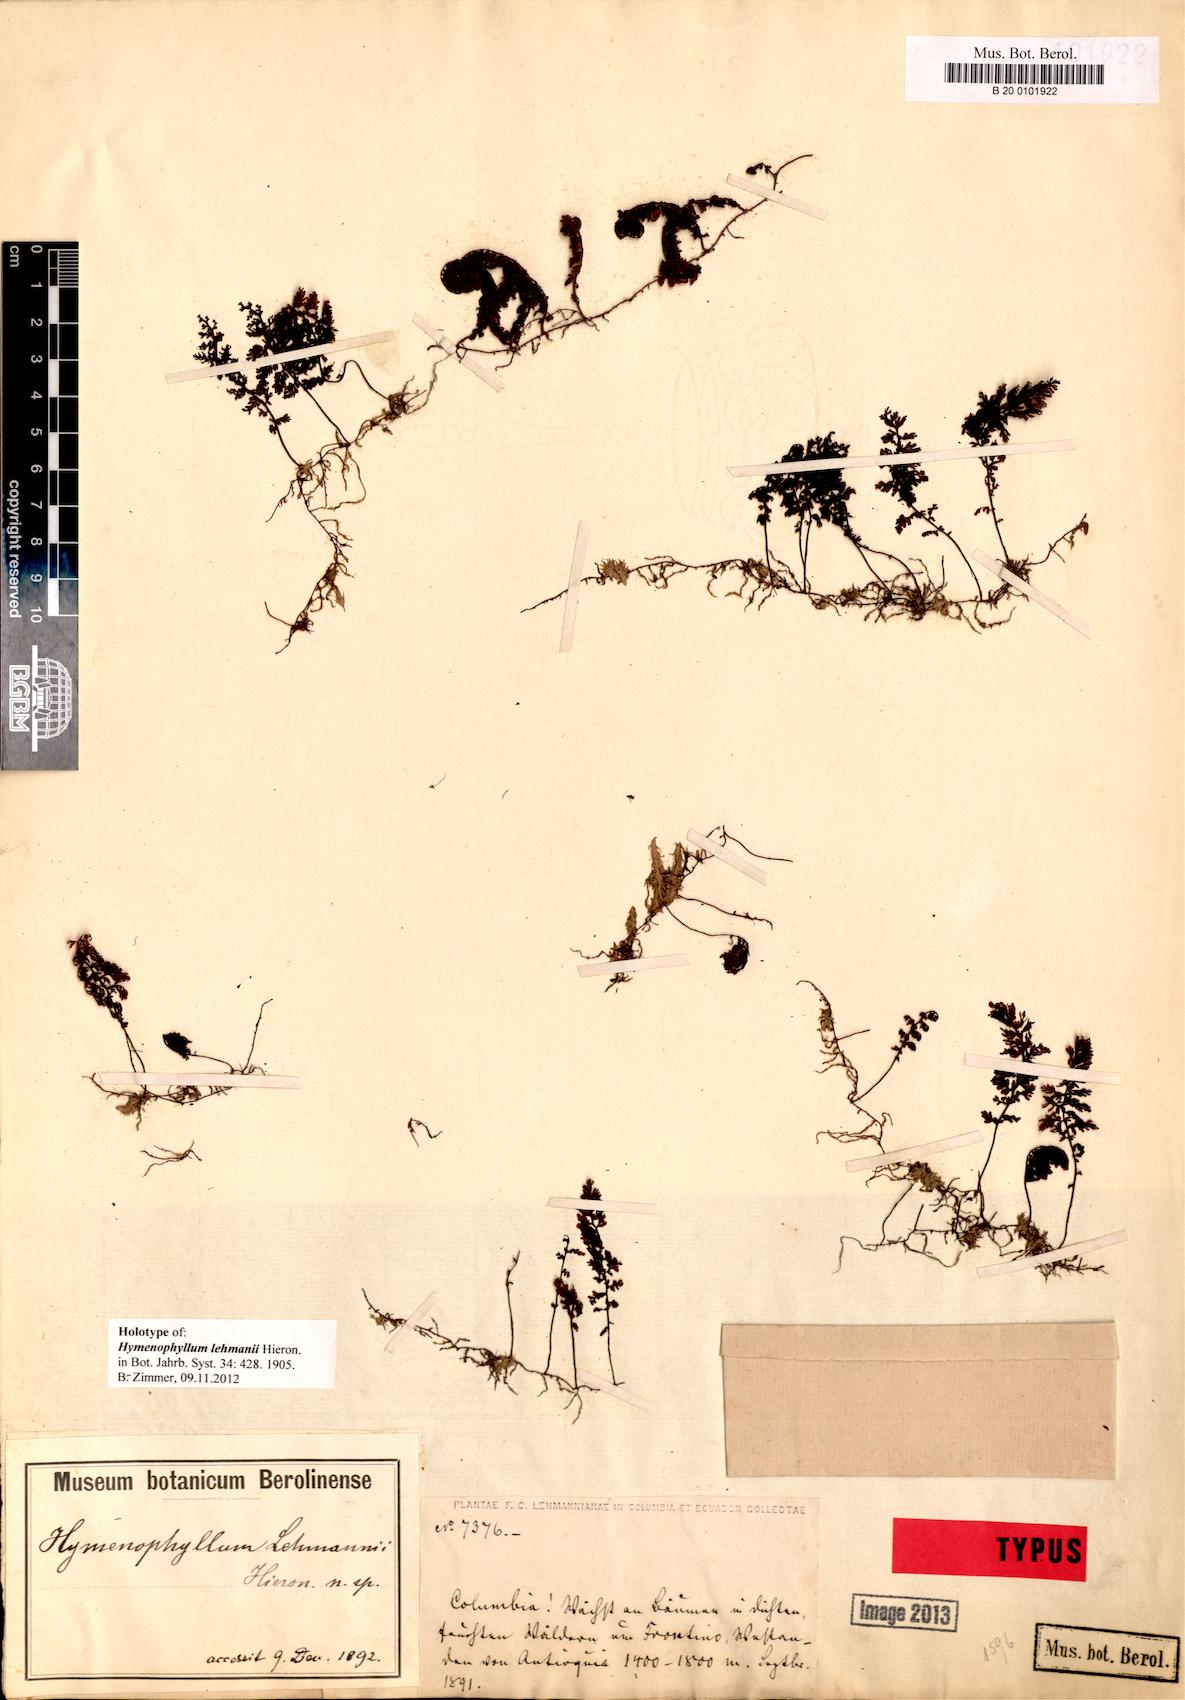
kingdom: Plantae
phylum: Tracheophyta
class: Polypodiopsida
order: Hymenophyllales
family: Hymenophyllaceae
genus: Hymenophyllum
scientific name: Hymenophyllum lehmannii
